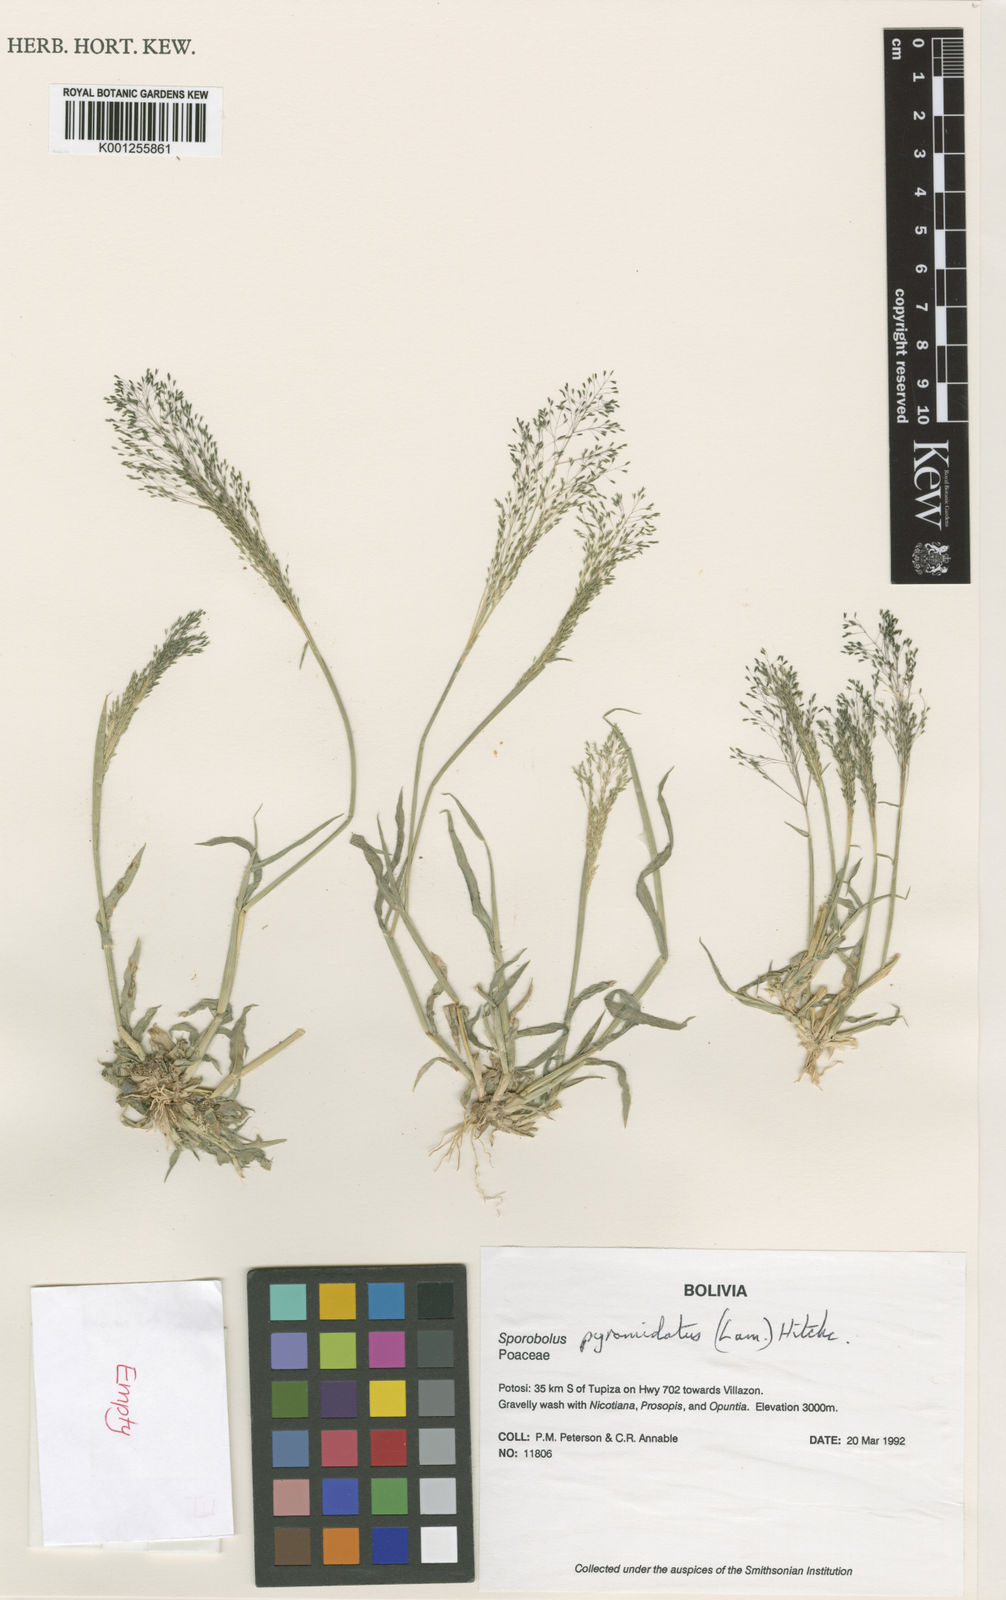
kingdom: Plantae
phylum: Tracheophyta
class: Liliopsida
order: Poales
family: Poaceae
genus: Sporobolus
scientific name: Sporobolus pyramidatus
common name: Whorled dropseed
